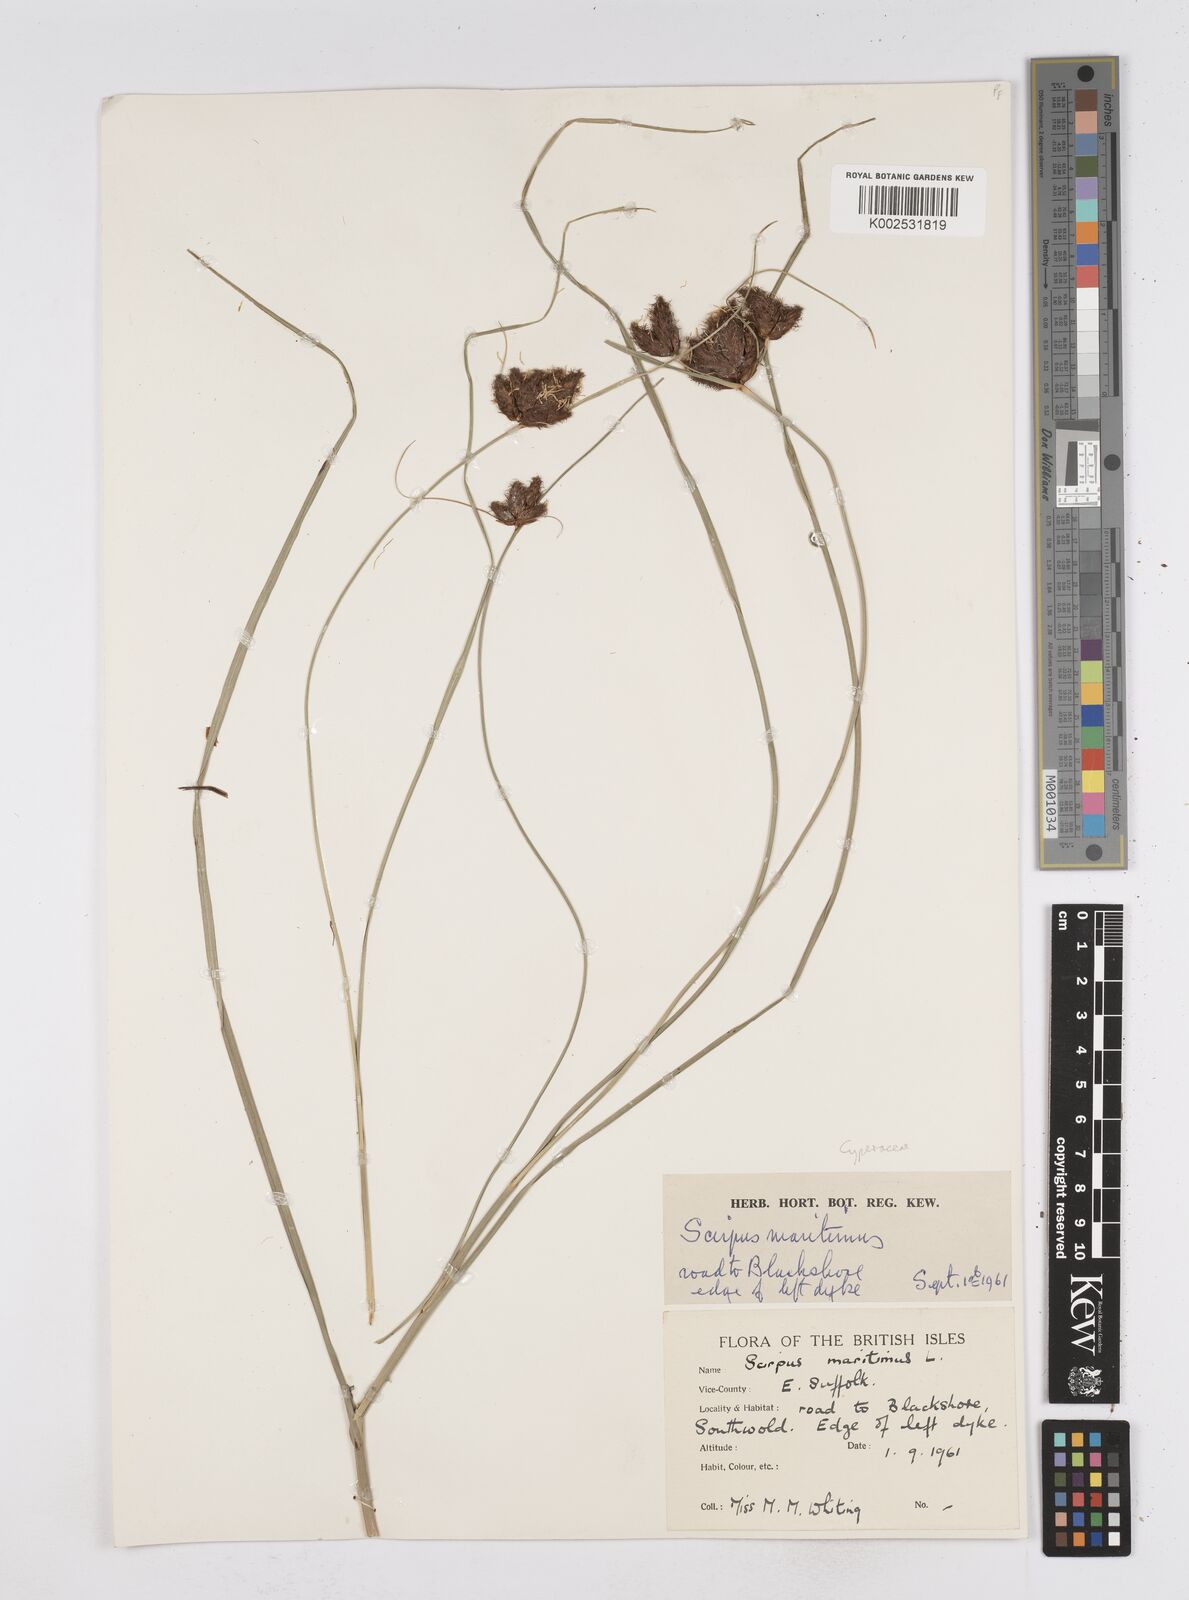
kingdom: Plantae
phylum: Tracheophyta
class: Liliopsida
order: Poales
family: Cyperaceae
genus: Bolboschoenus
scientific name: Bolboschoenus maritimus
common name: Sea club-rush
